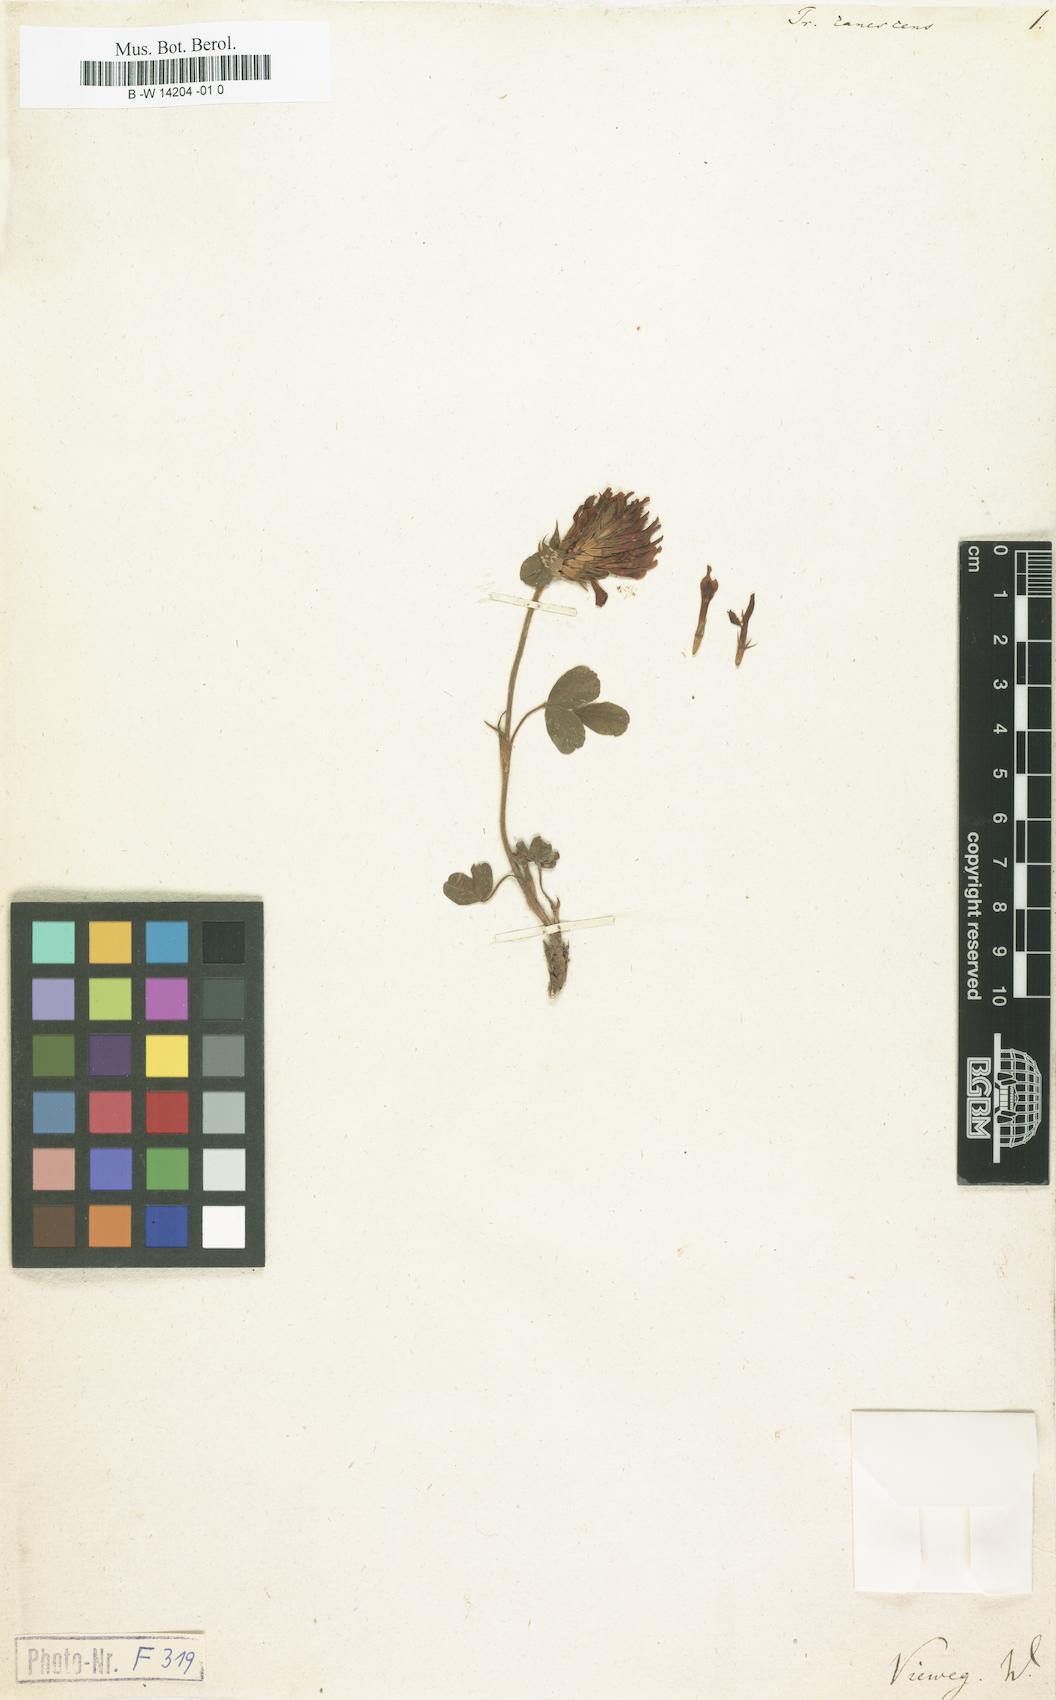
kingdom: Plantae
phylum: Tracheophyta
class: Magnoliopsida
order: Fabales
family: Fabaceae
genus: Trifolium
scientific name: Trifolium canescens
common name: Graying clover
